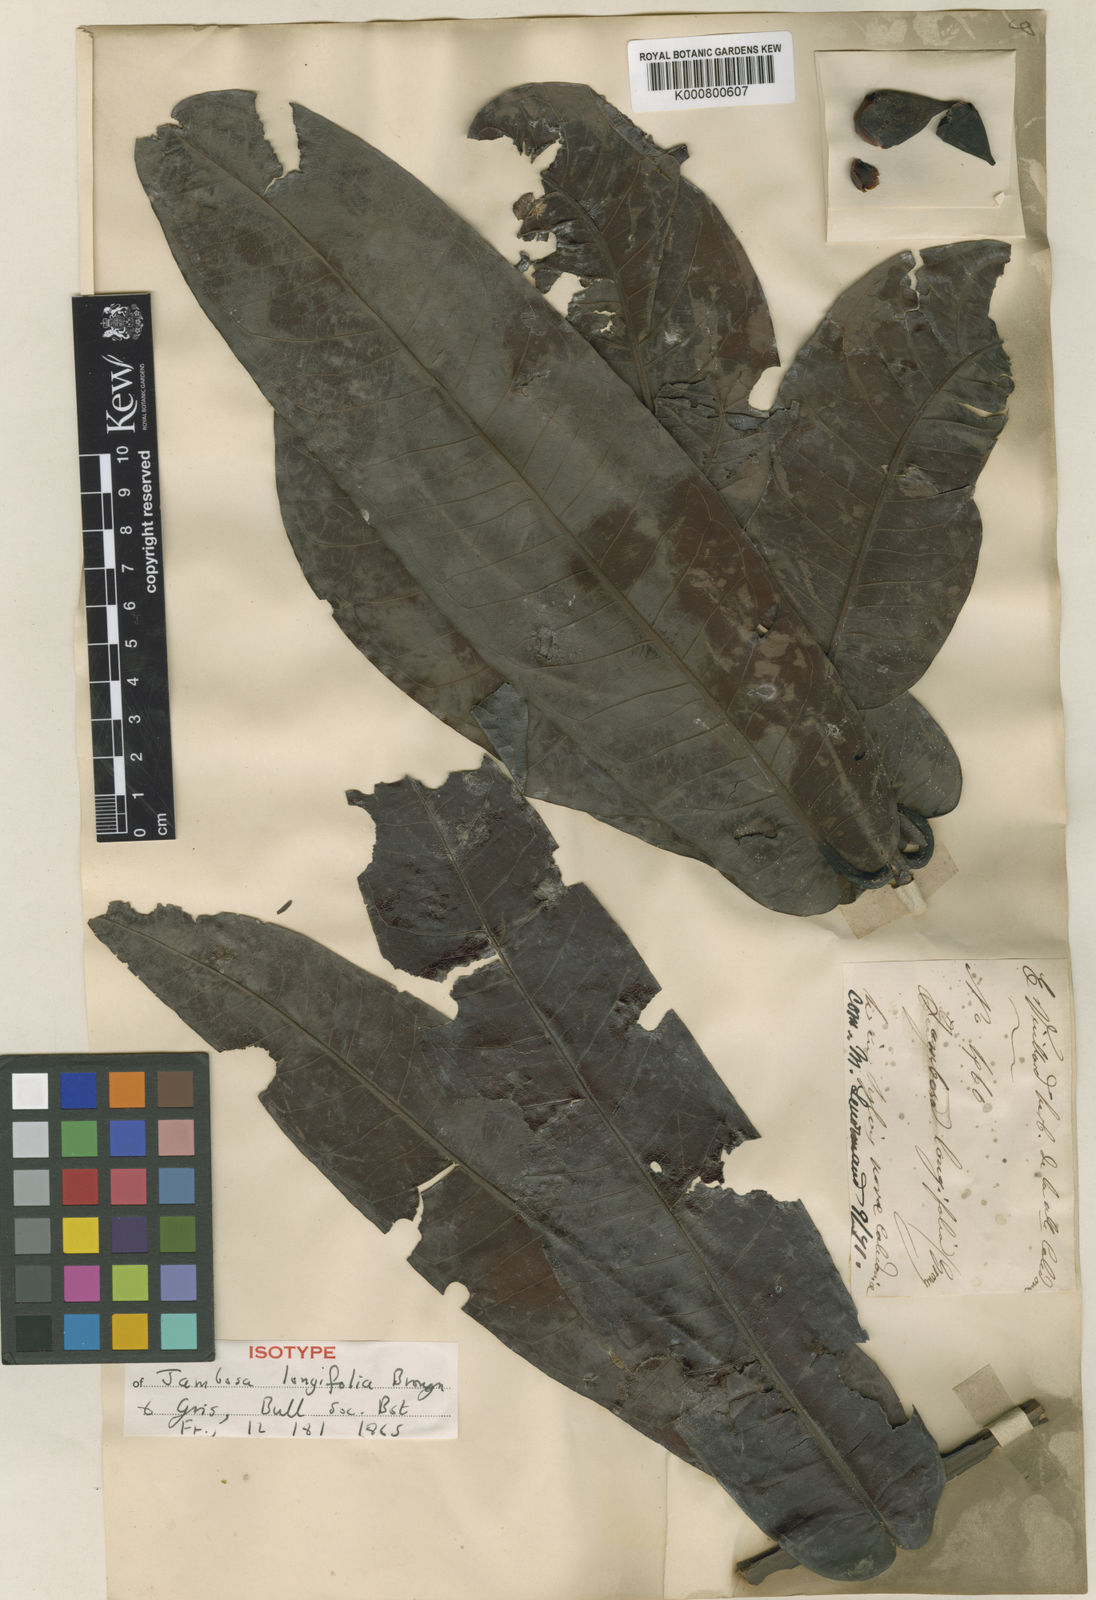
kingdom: Plantae
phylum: Tracheophyta
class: Magnoliopsida
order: Myrtales
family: Myrtaceae
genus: Syzygium
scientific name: Syzygium longifolium
